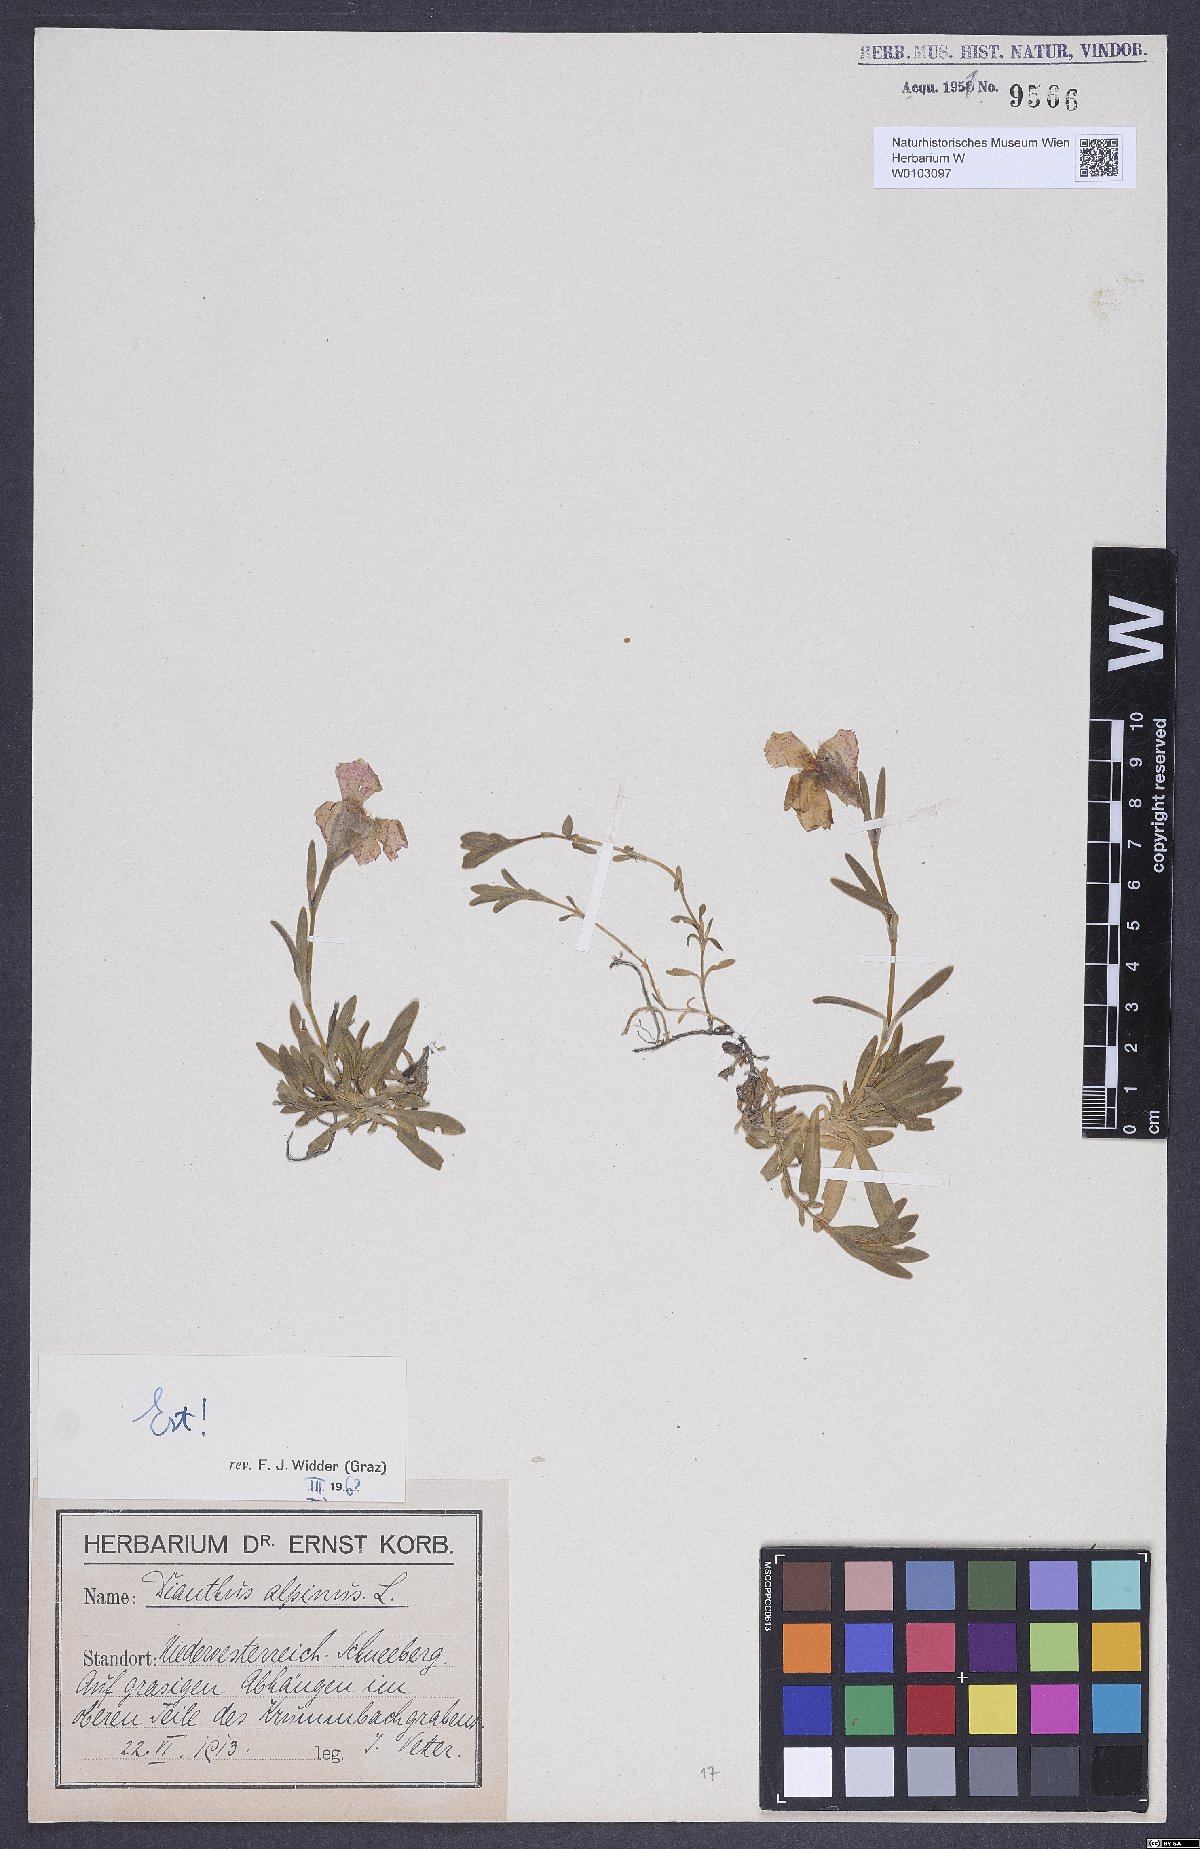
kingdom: Plantae
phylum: Tracheophyta
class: Magnoliopsida
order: Caryophyllales
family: Caryophyllaceae
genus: Dianthus
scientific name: Dianthus alpinus
